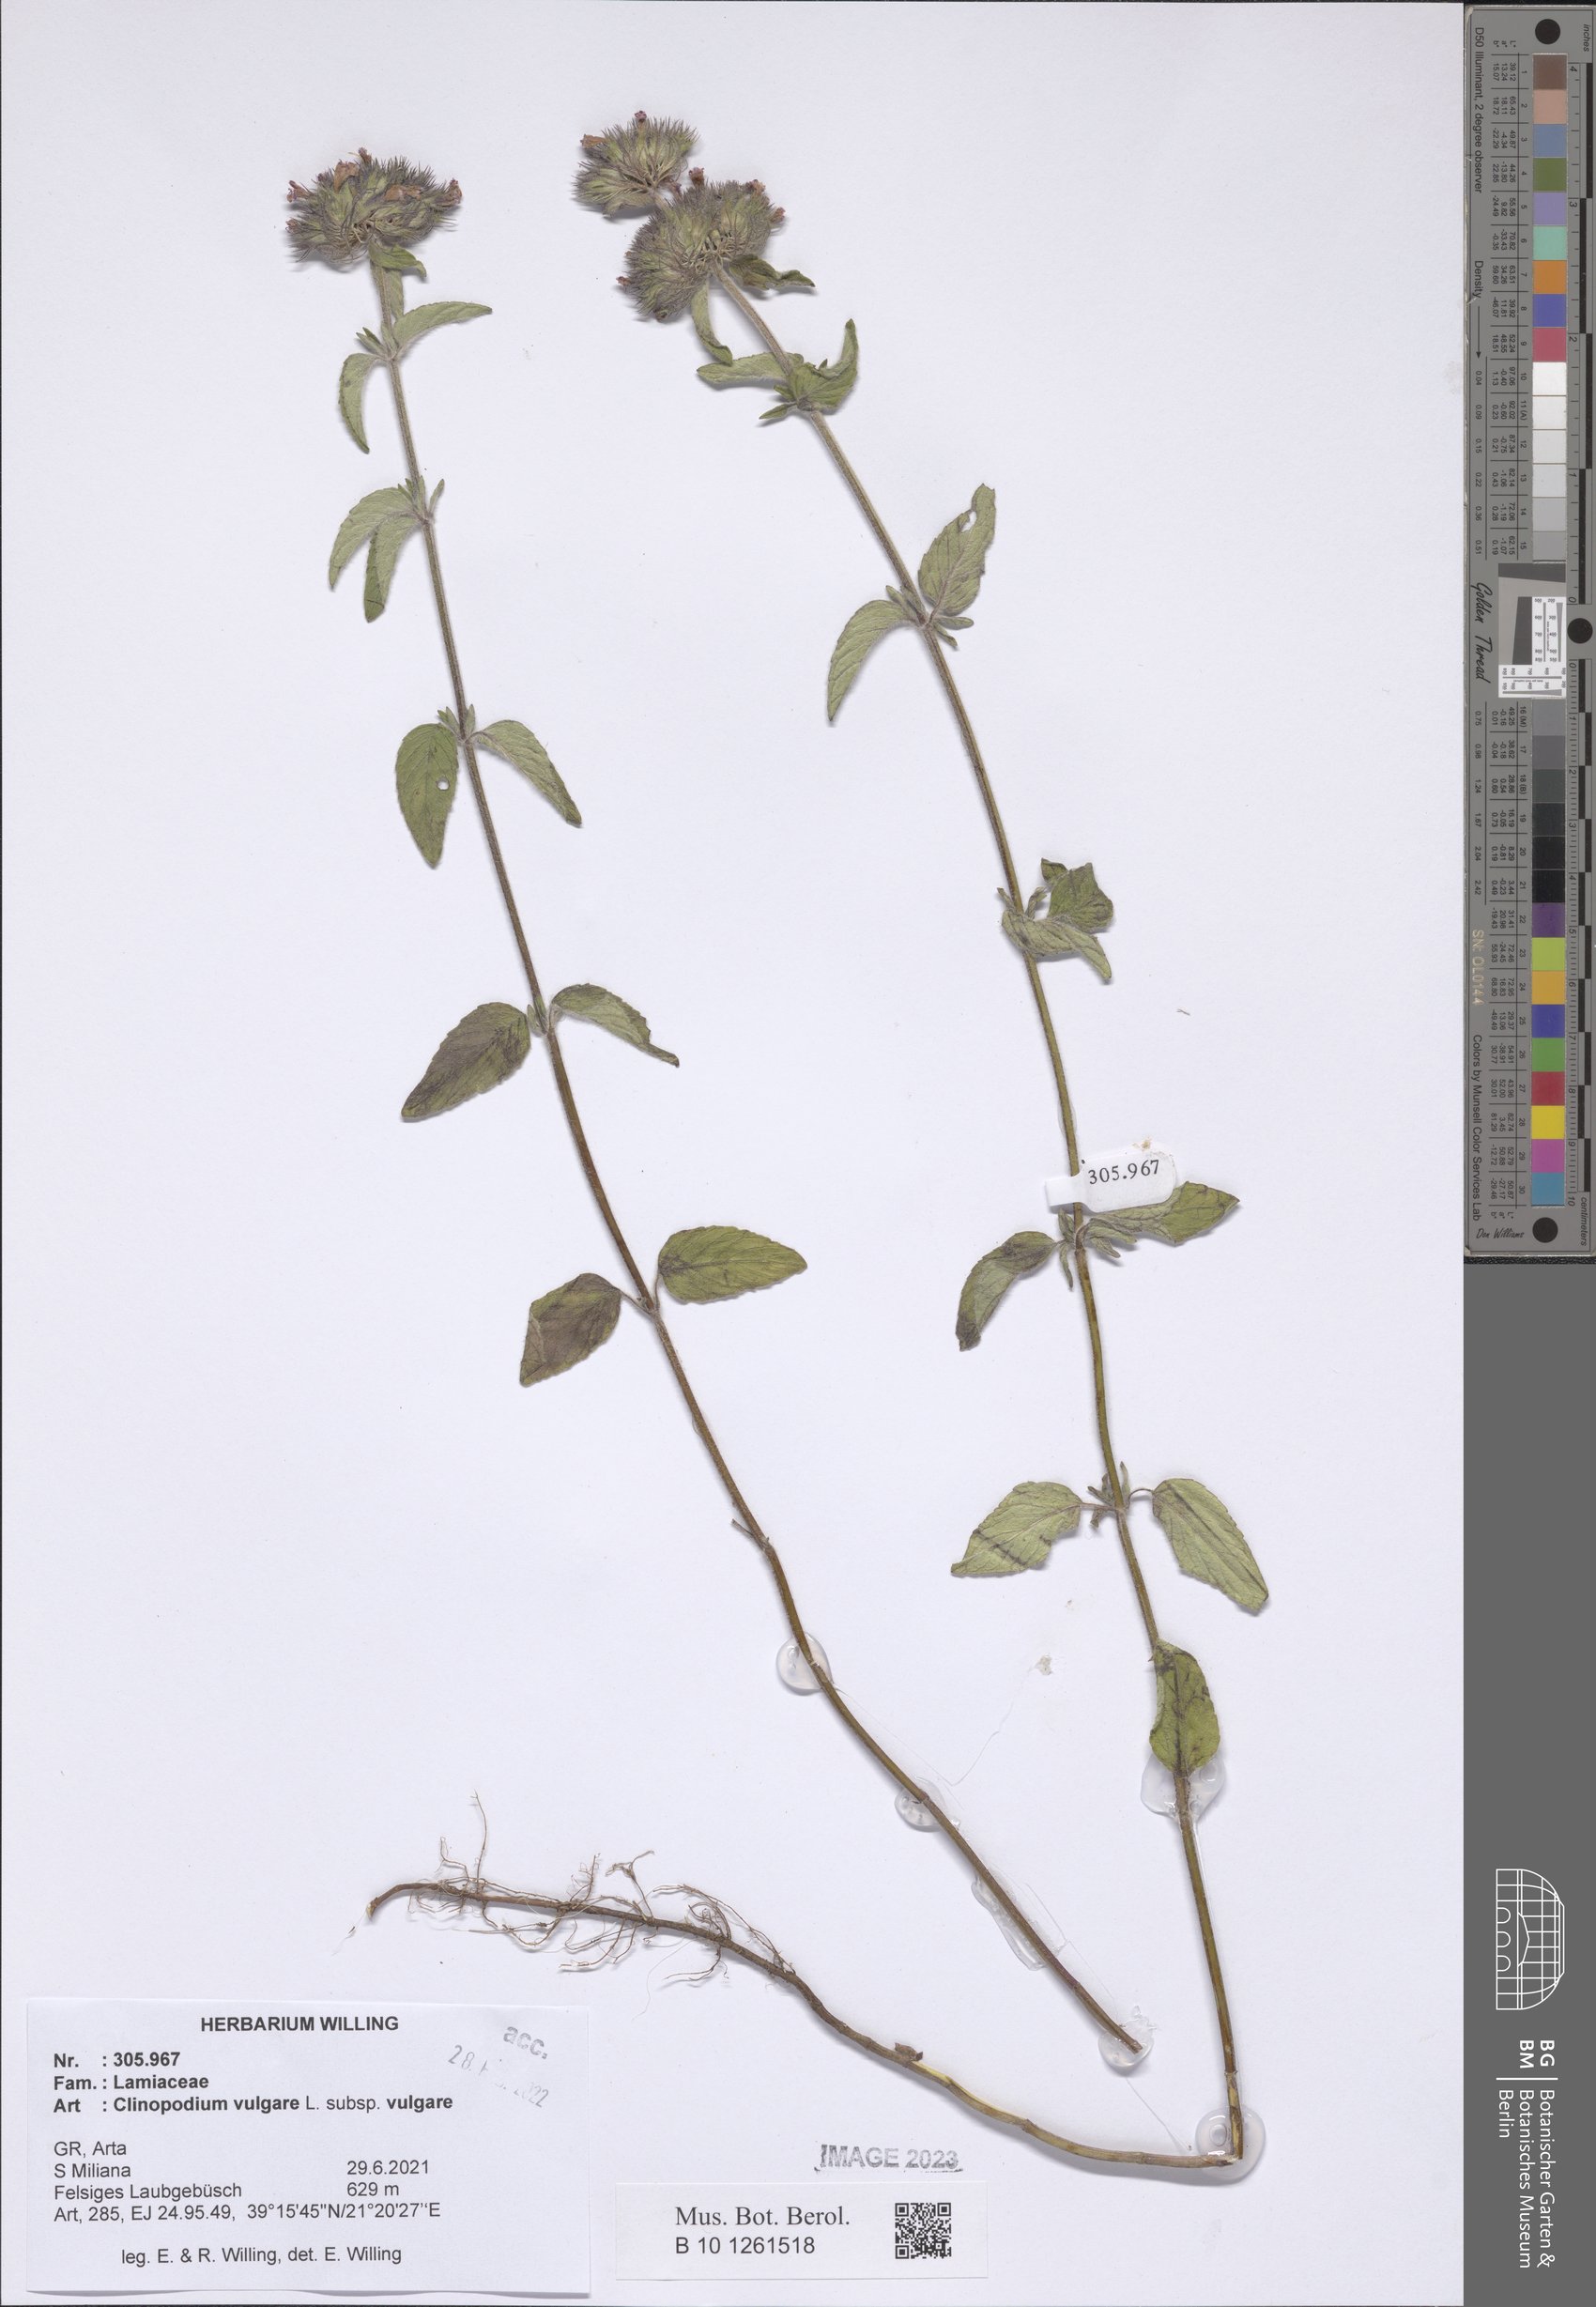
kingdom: Plantae
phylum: Tracheophyta
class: Magnoliopsida
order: Lamiales
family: Lamiaceae
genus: Clinopodium
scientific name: Clinopodium vulgare
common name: Wild basil
